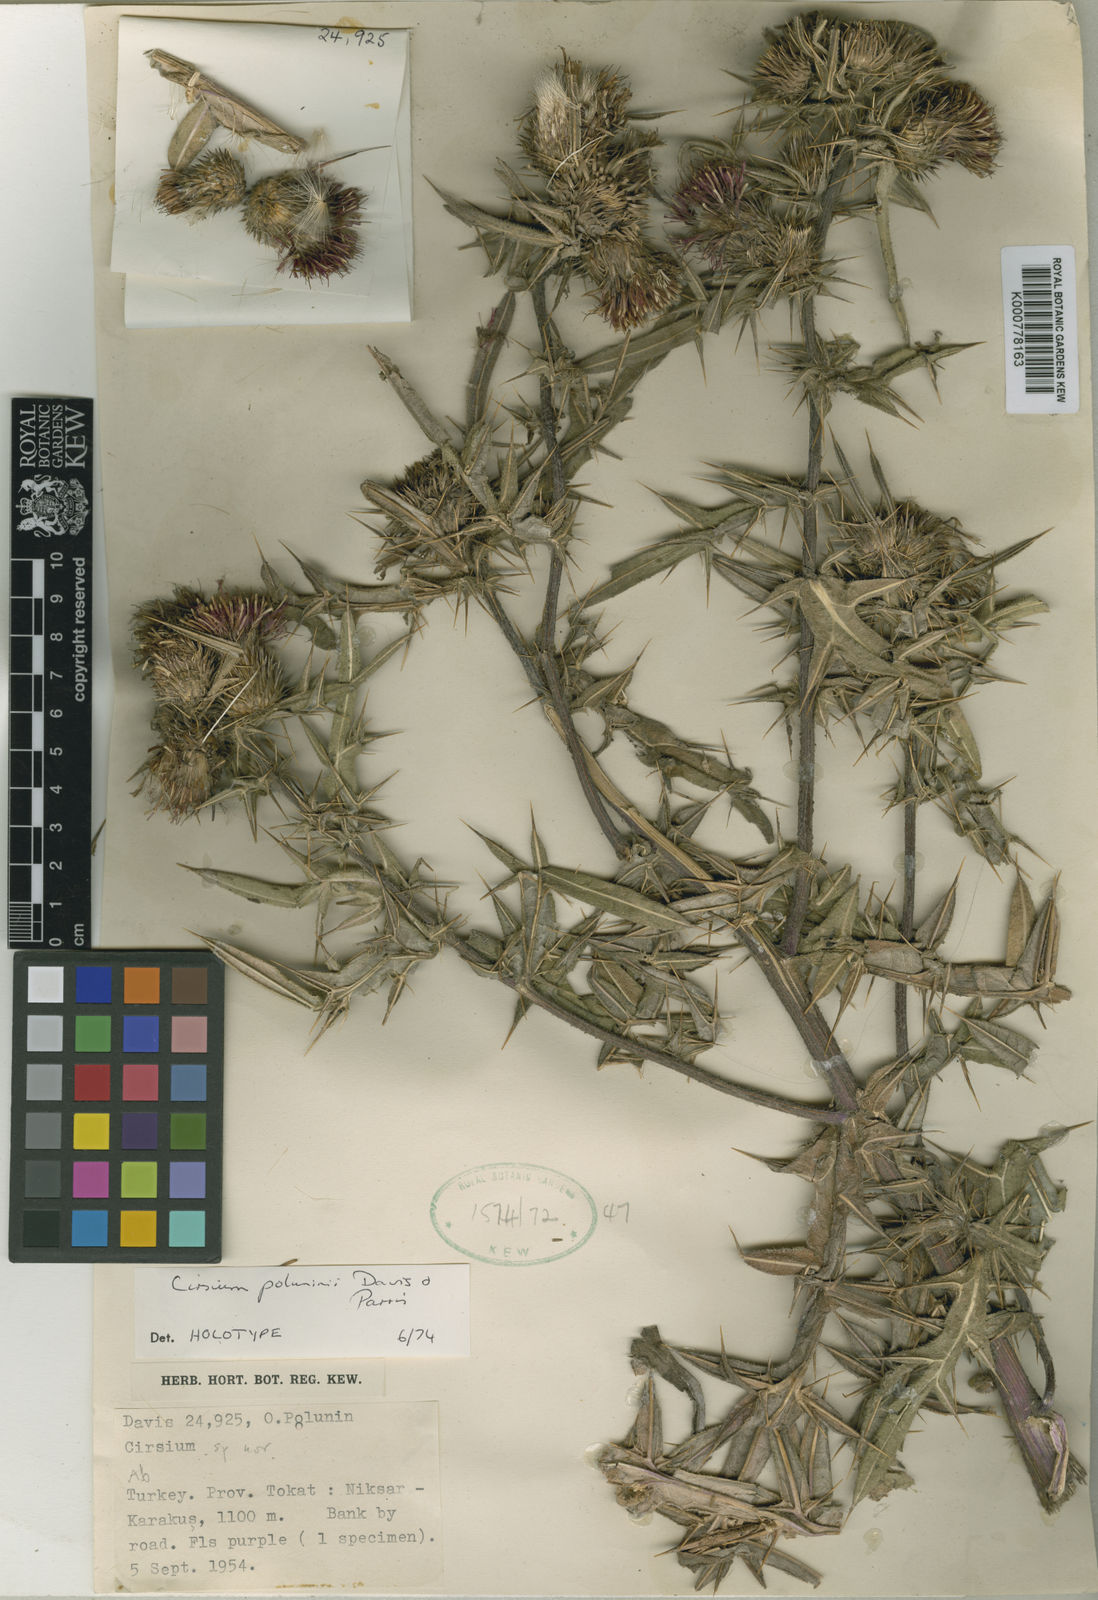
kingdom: Plantae
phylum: Tracheophyta
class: Magnoliopsida
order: Asterales
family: Asteraceae
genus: Lophiolepis
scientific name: Lophiolepis poluninii
